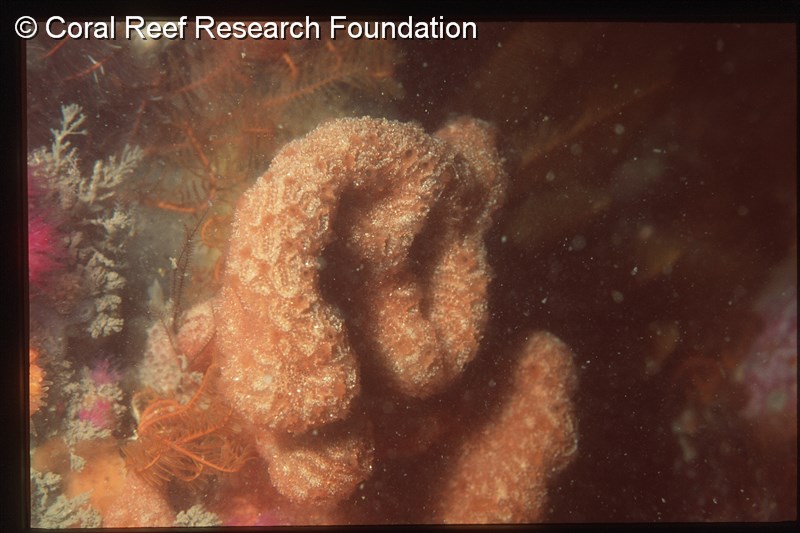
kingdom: Animalia
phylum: Chordata
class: Ascidiacea
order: Aplousobranchia
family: Polyclinidae
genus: Aplidium
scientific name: Aplidium pantherinum
